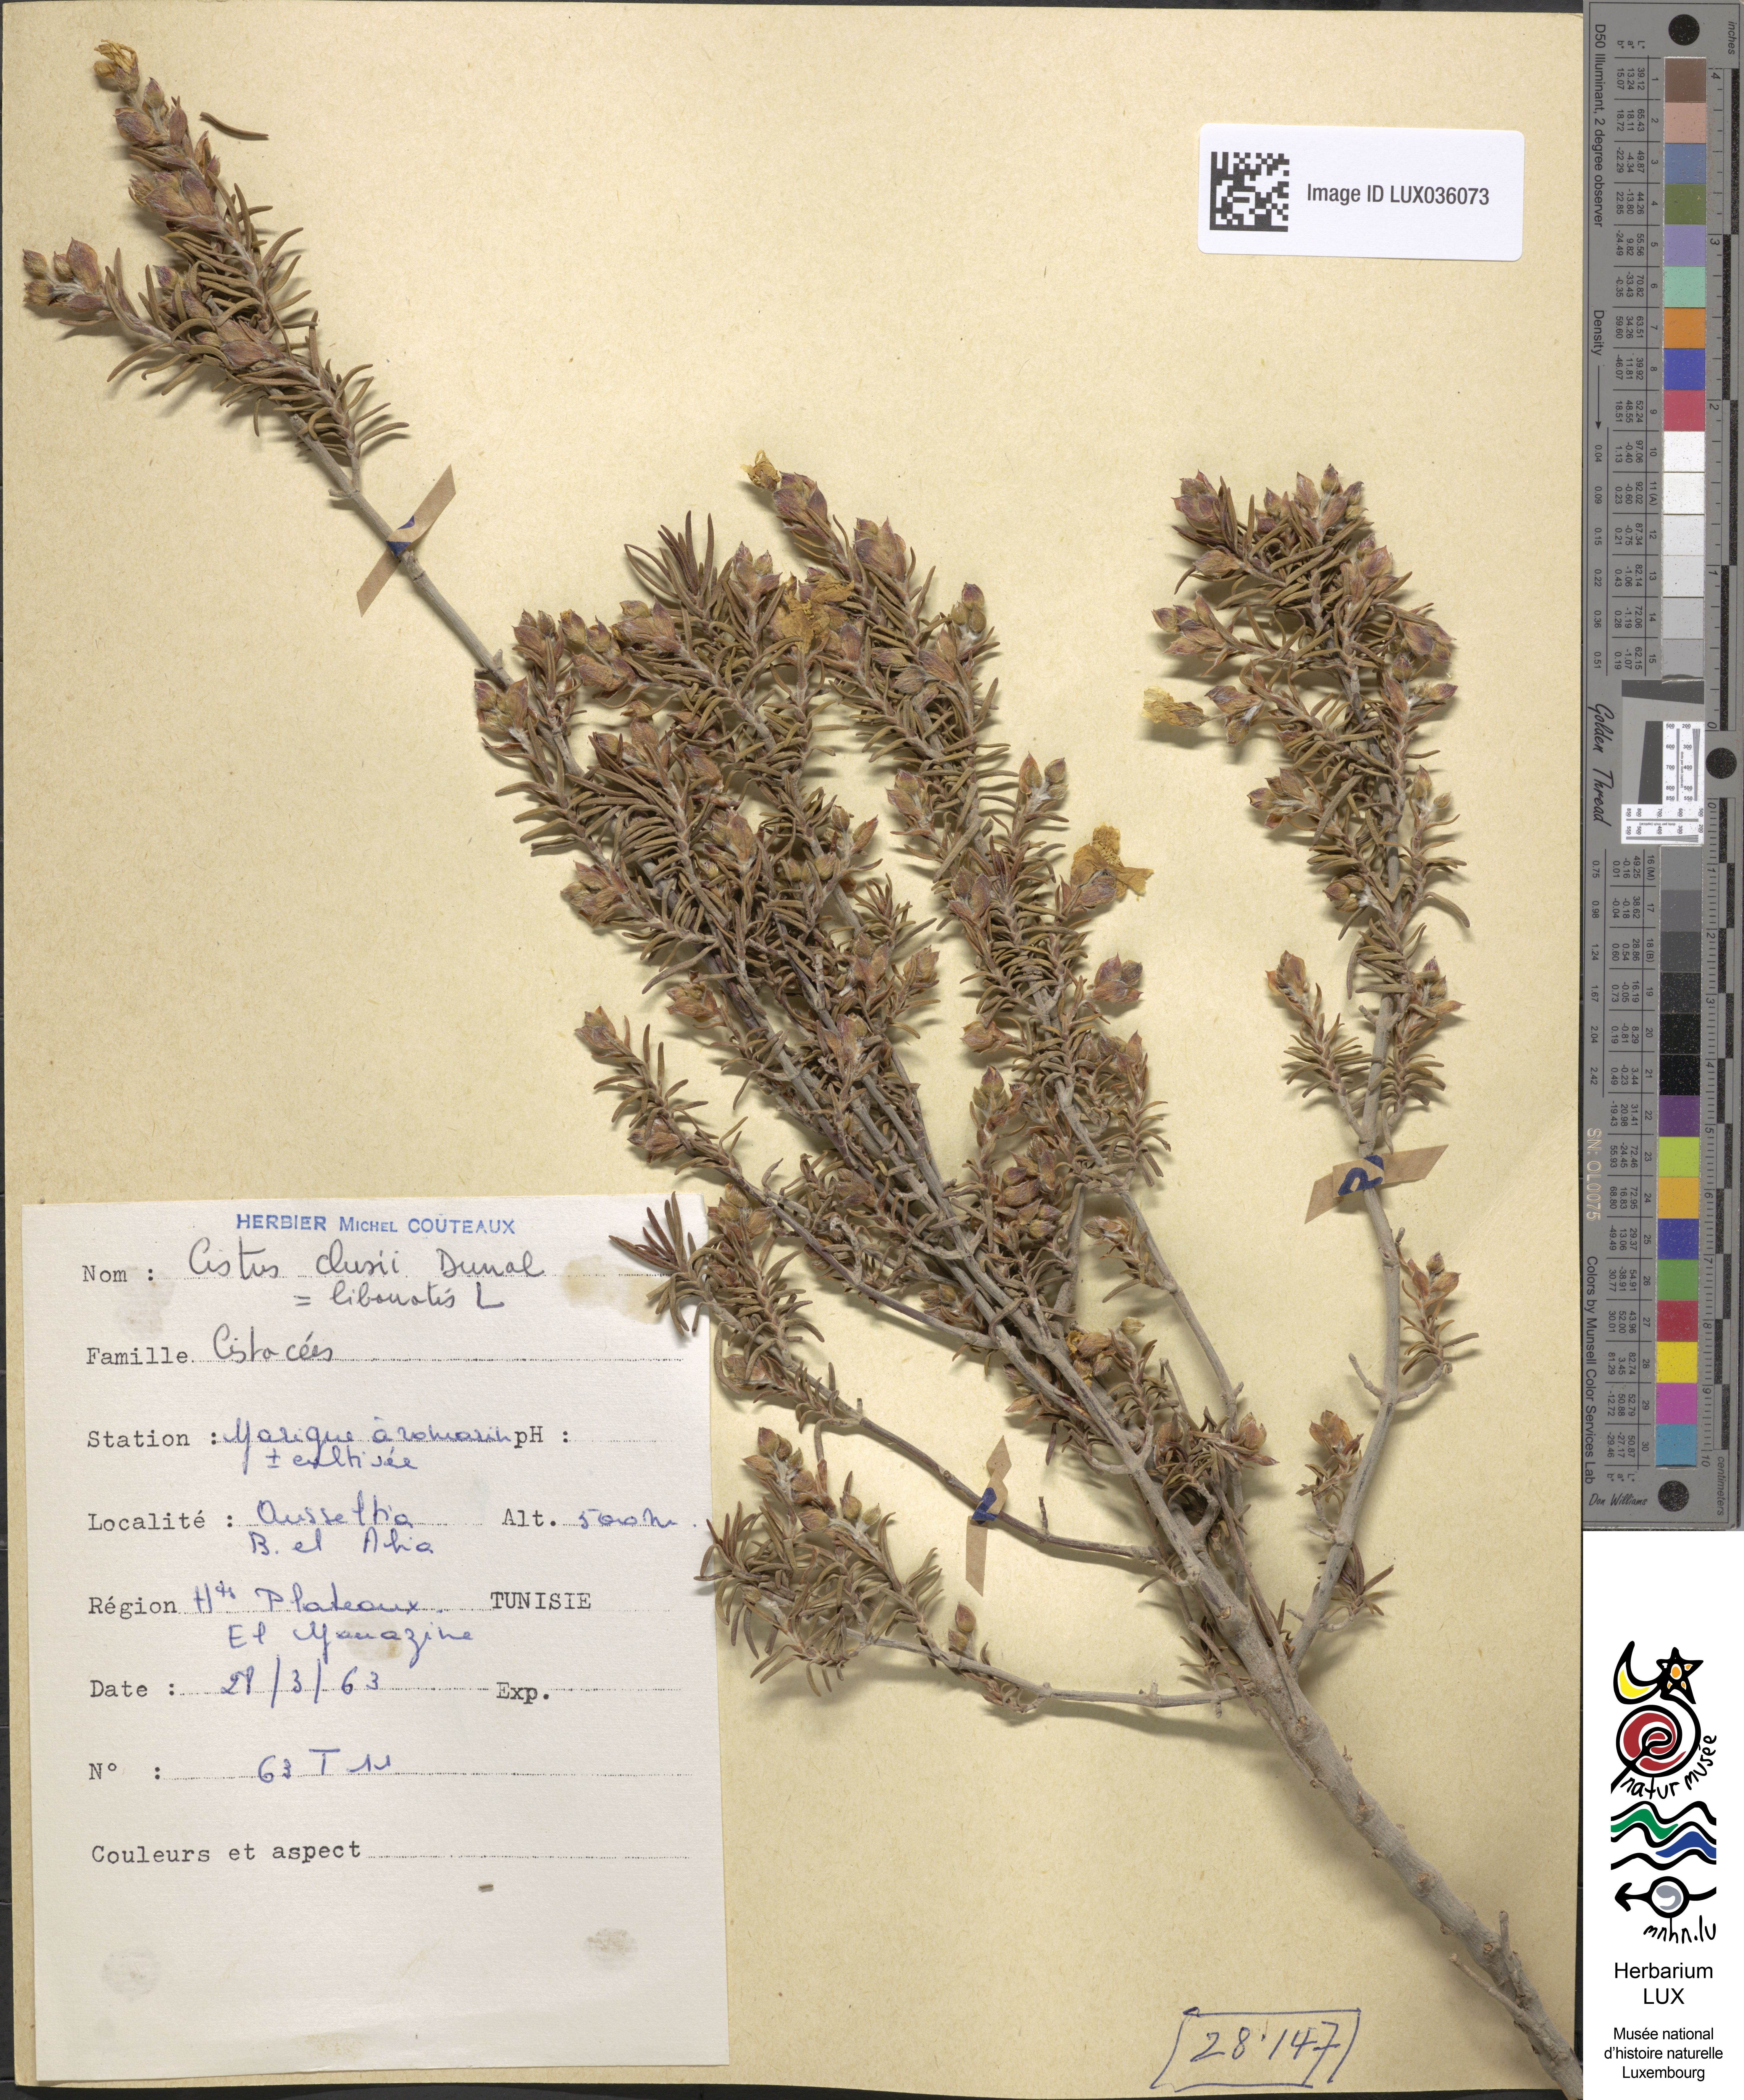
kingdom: Plantae
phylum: Tracheophyta
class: Magnoliopsida
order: Malvales
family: Cistaceae
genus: Cistus
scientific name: Cistus libanotis
